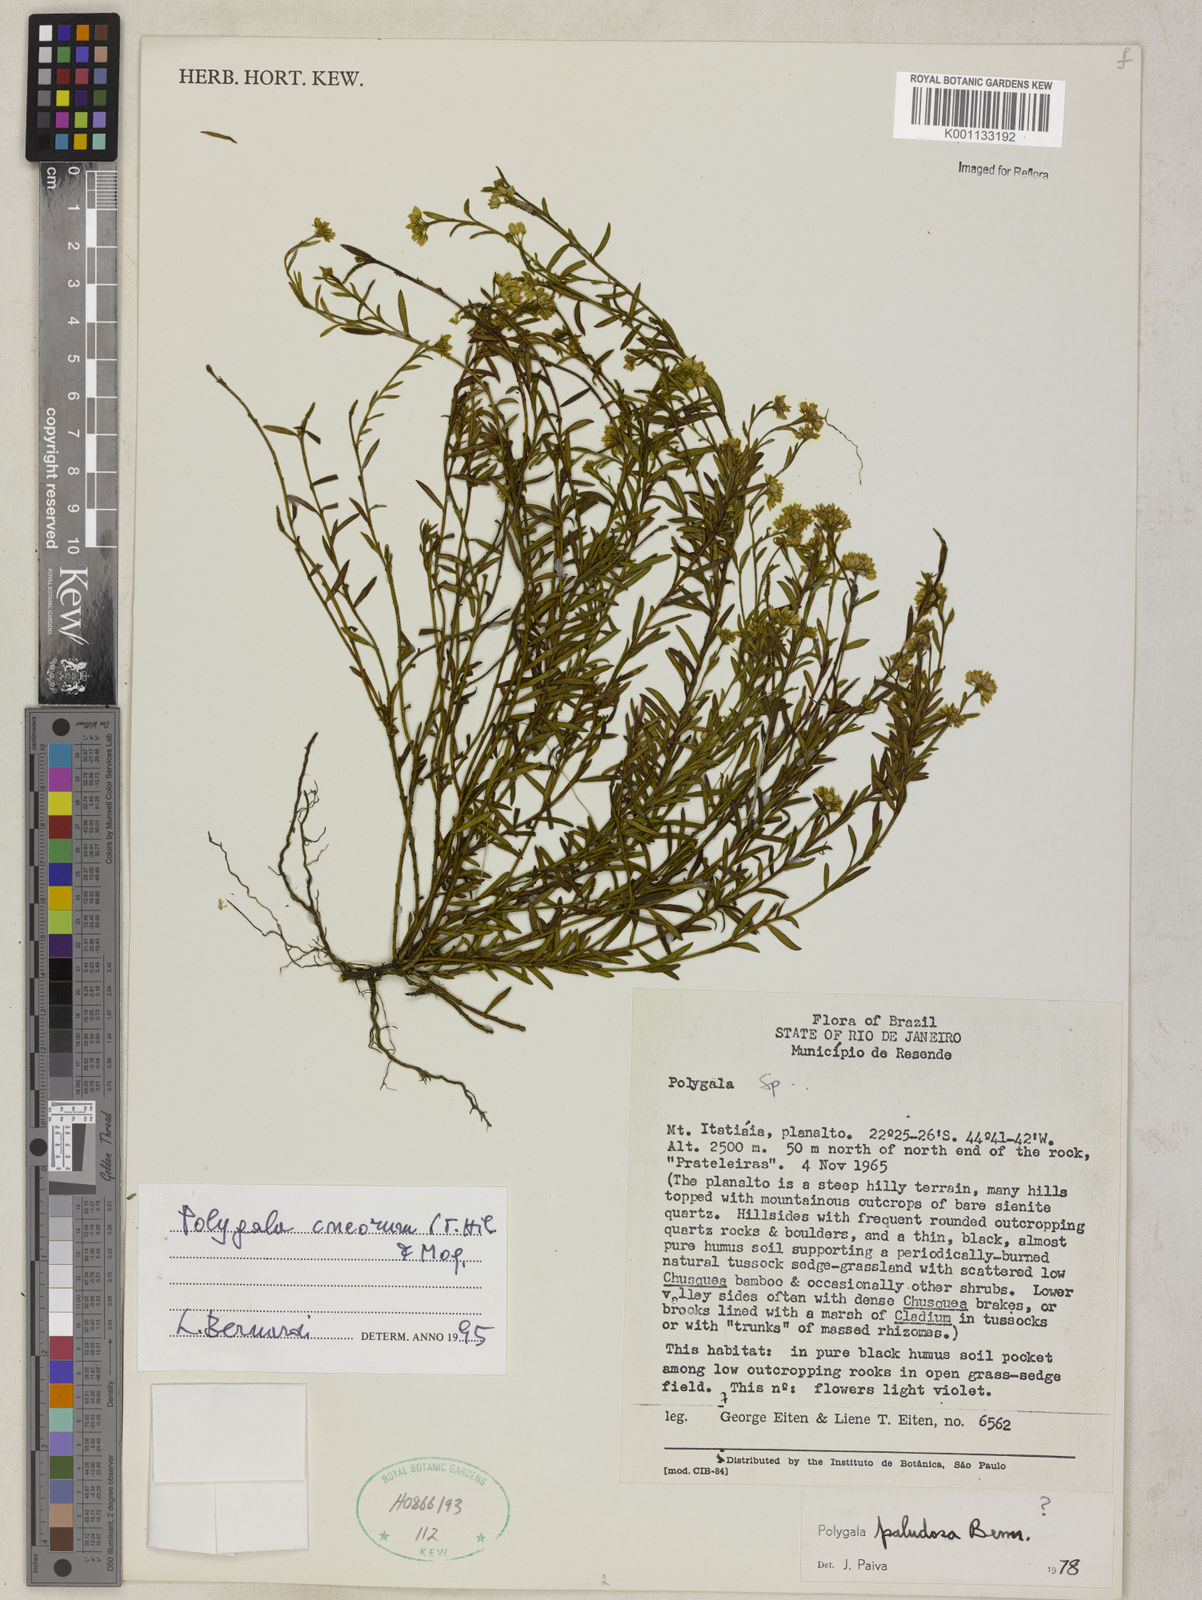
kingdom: Plantae
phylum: Tracheophyta
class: Magnoliopsida
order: Fabales
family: Polygalaceae
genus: Polygala
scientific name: Polygala cneorum
